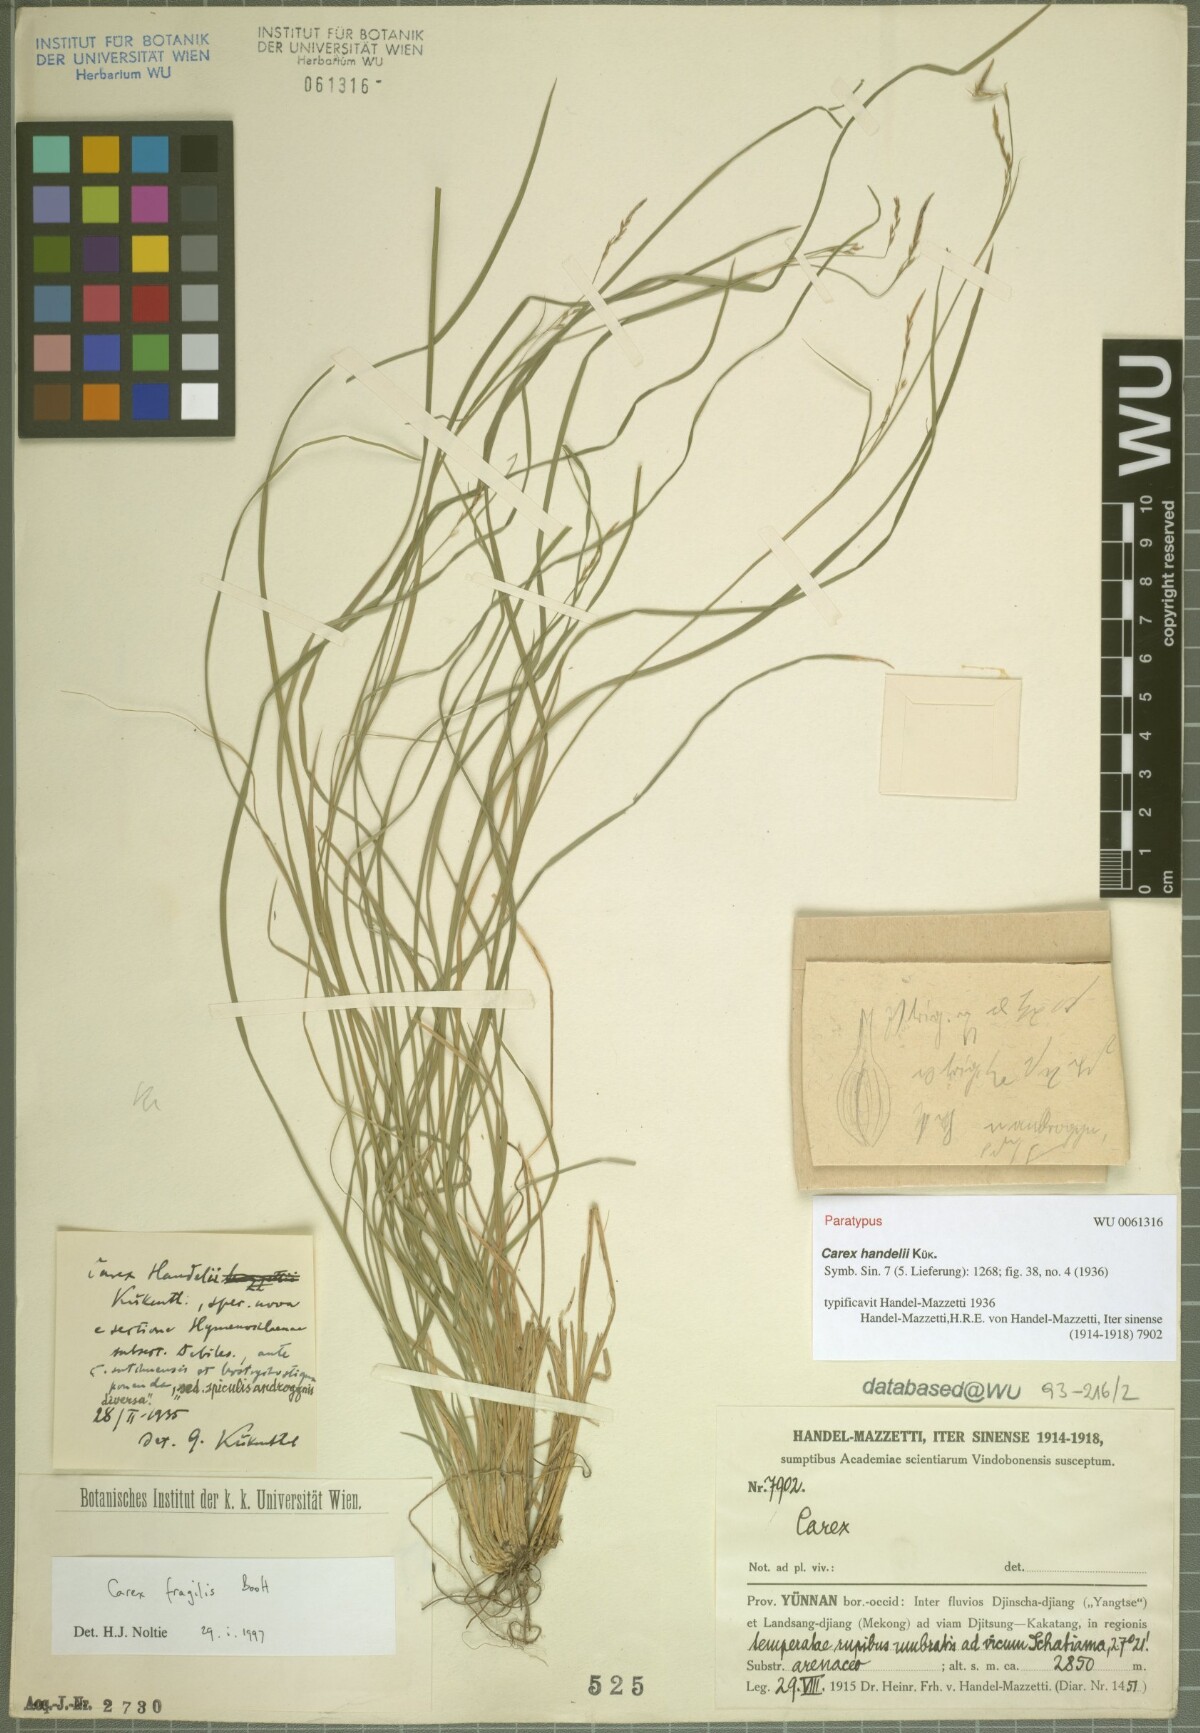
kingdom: Plantae
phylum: Tracheophyta
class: Liliopsida
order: Poales
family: Cyperaceae
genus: Carex
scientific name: Carex handelii
